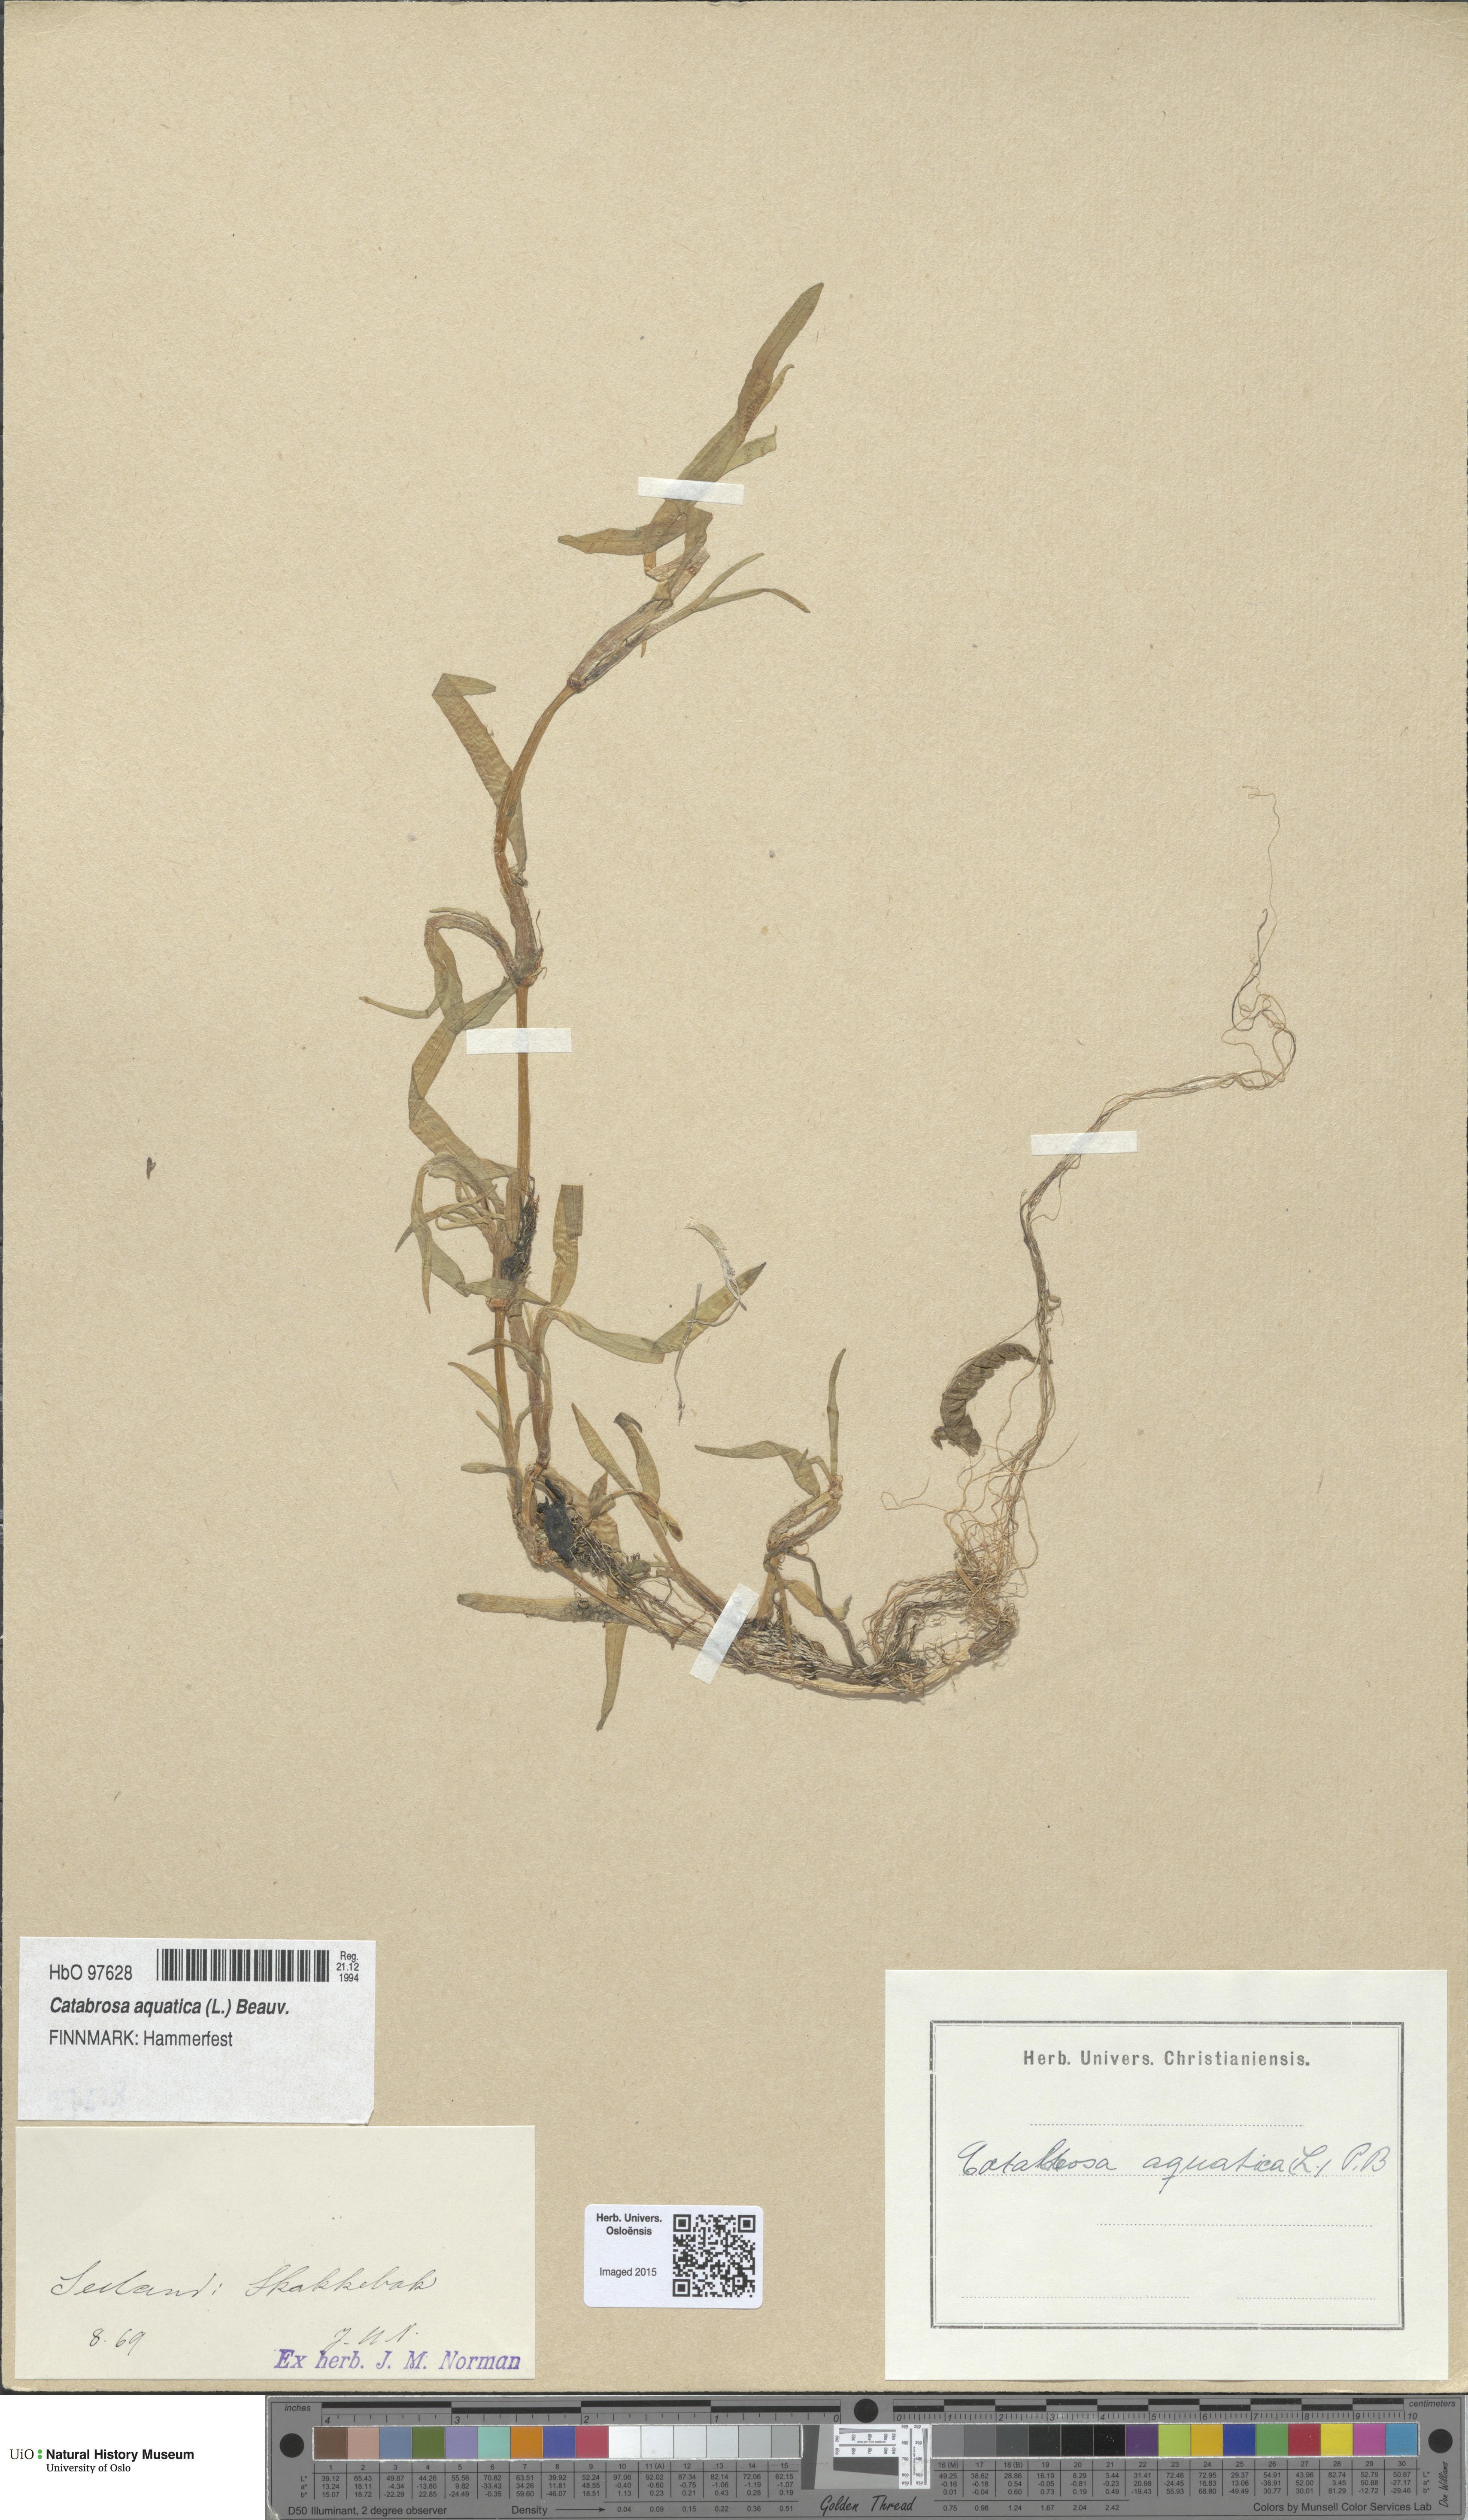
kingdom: Plantae
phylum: Tracheophyta
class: Liliopsida
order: Poales
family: Poaceae
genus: Catabrosa
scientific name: Catabrosa aquatica
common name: Whorl-grass
